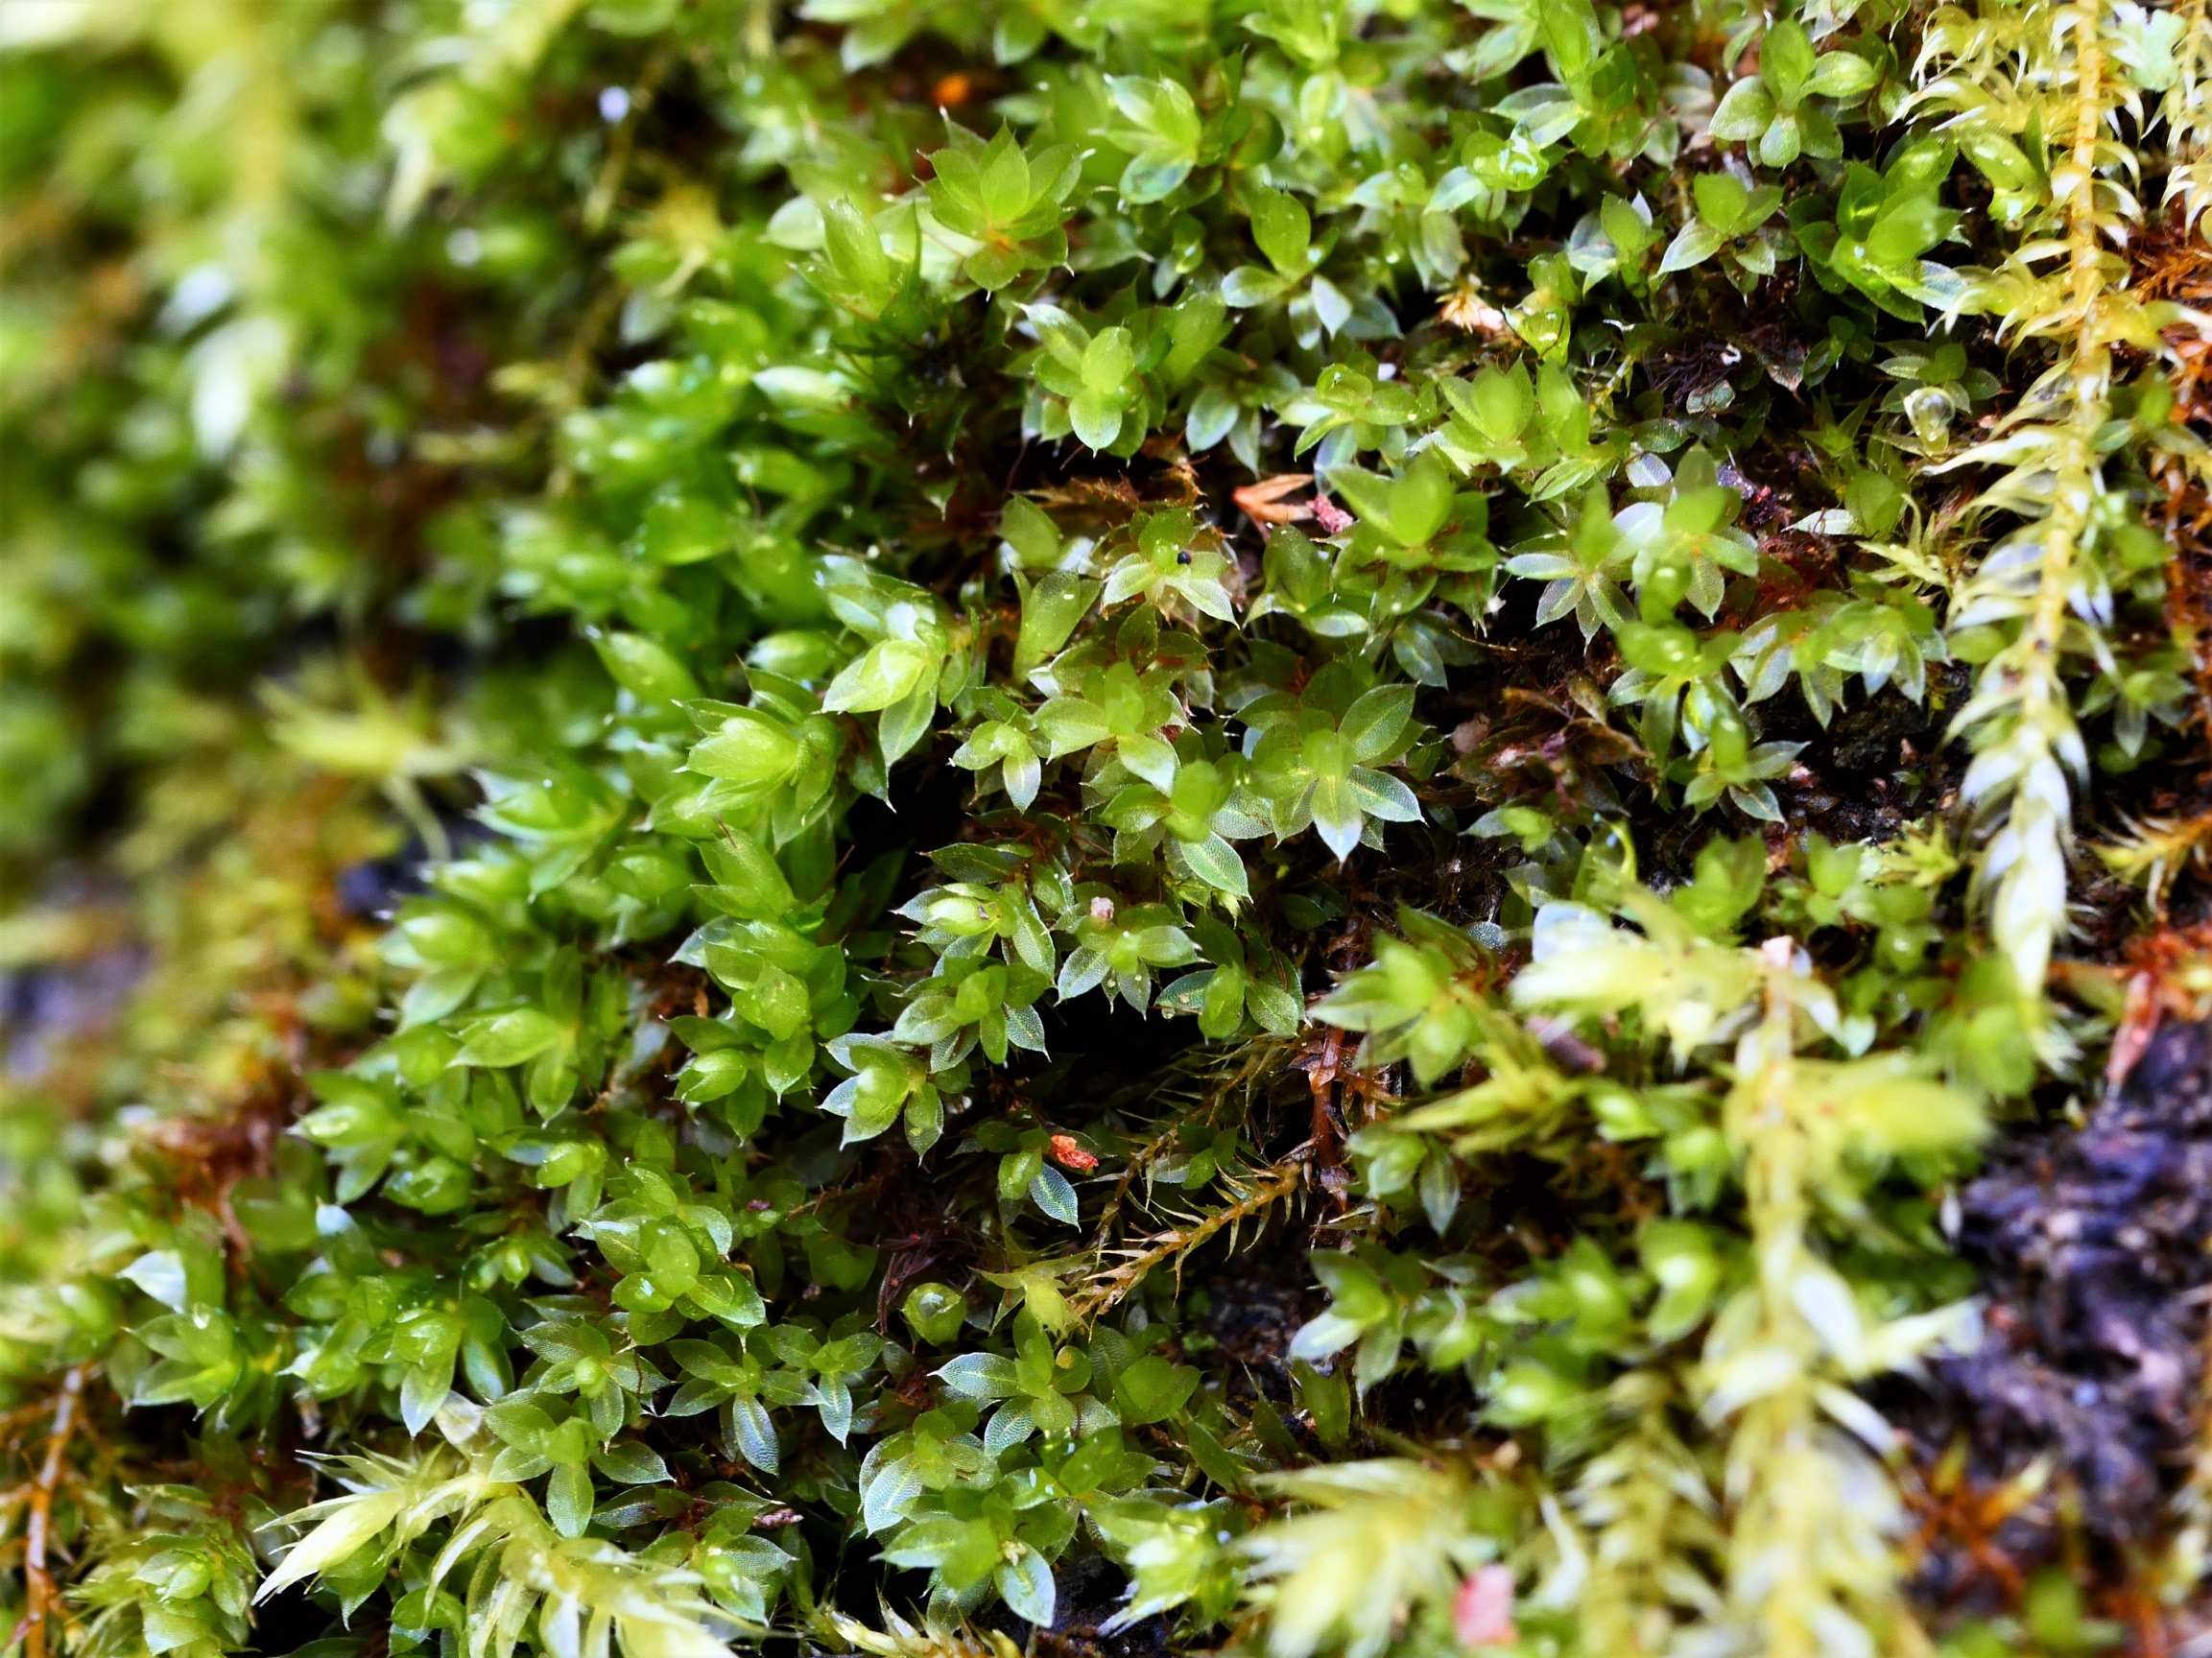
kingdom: Plantae
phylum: Bryophyta
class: Bryopsida
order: Bryales
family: Bryaceae
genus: Rosulabryum
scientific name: Rosulabryum moravicum
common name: Bark-bryum
